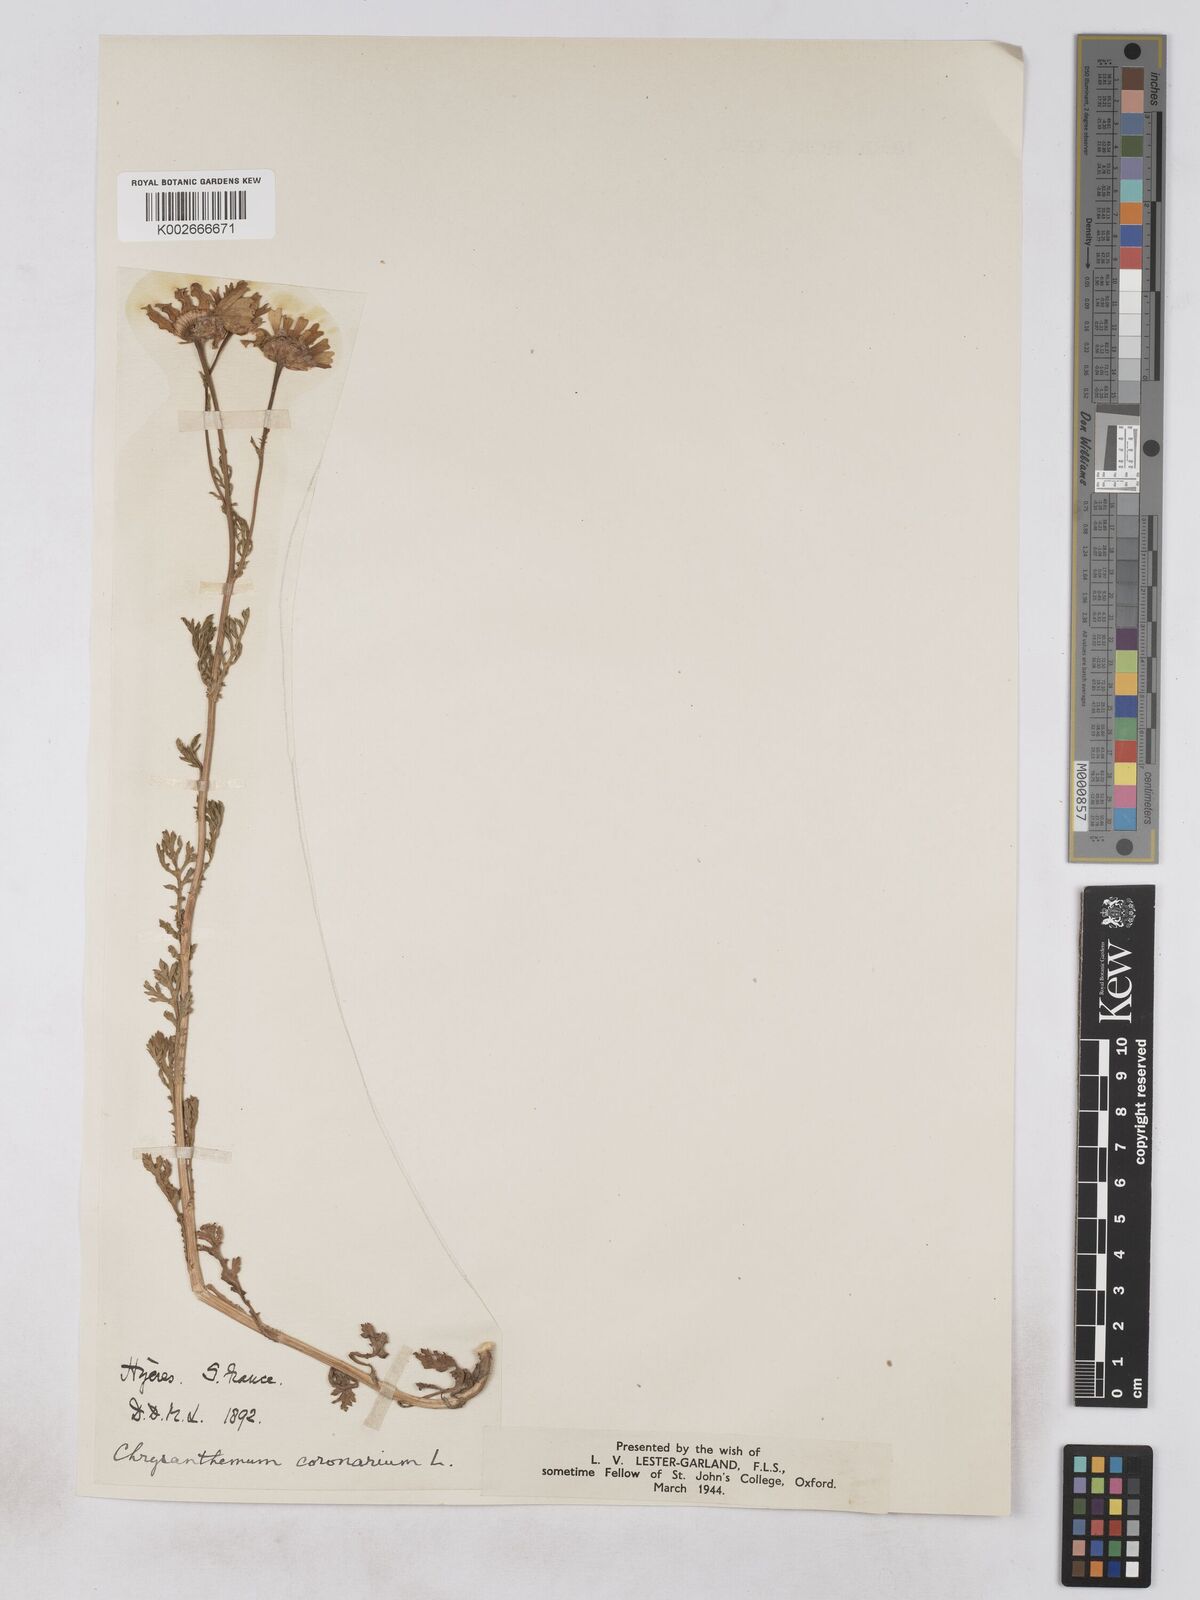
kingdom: Plantae
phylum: Tracheophyta
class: Magnoliopsida
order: Asterales
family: Asteraceae
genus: Glebionis
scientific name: Glebionis coronaria
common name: Crowndaisy
